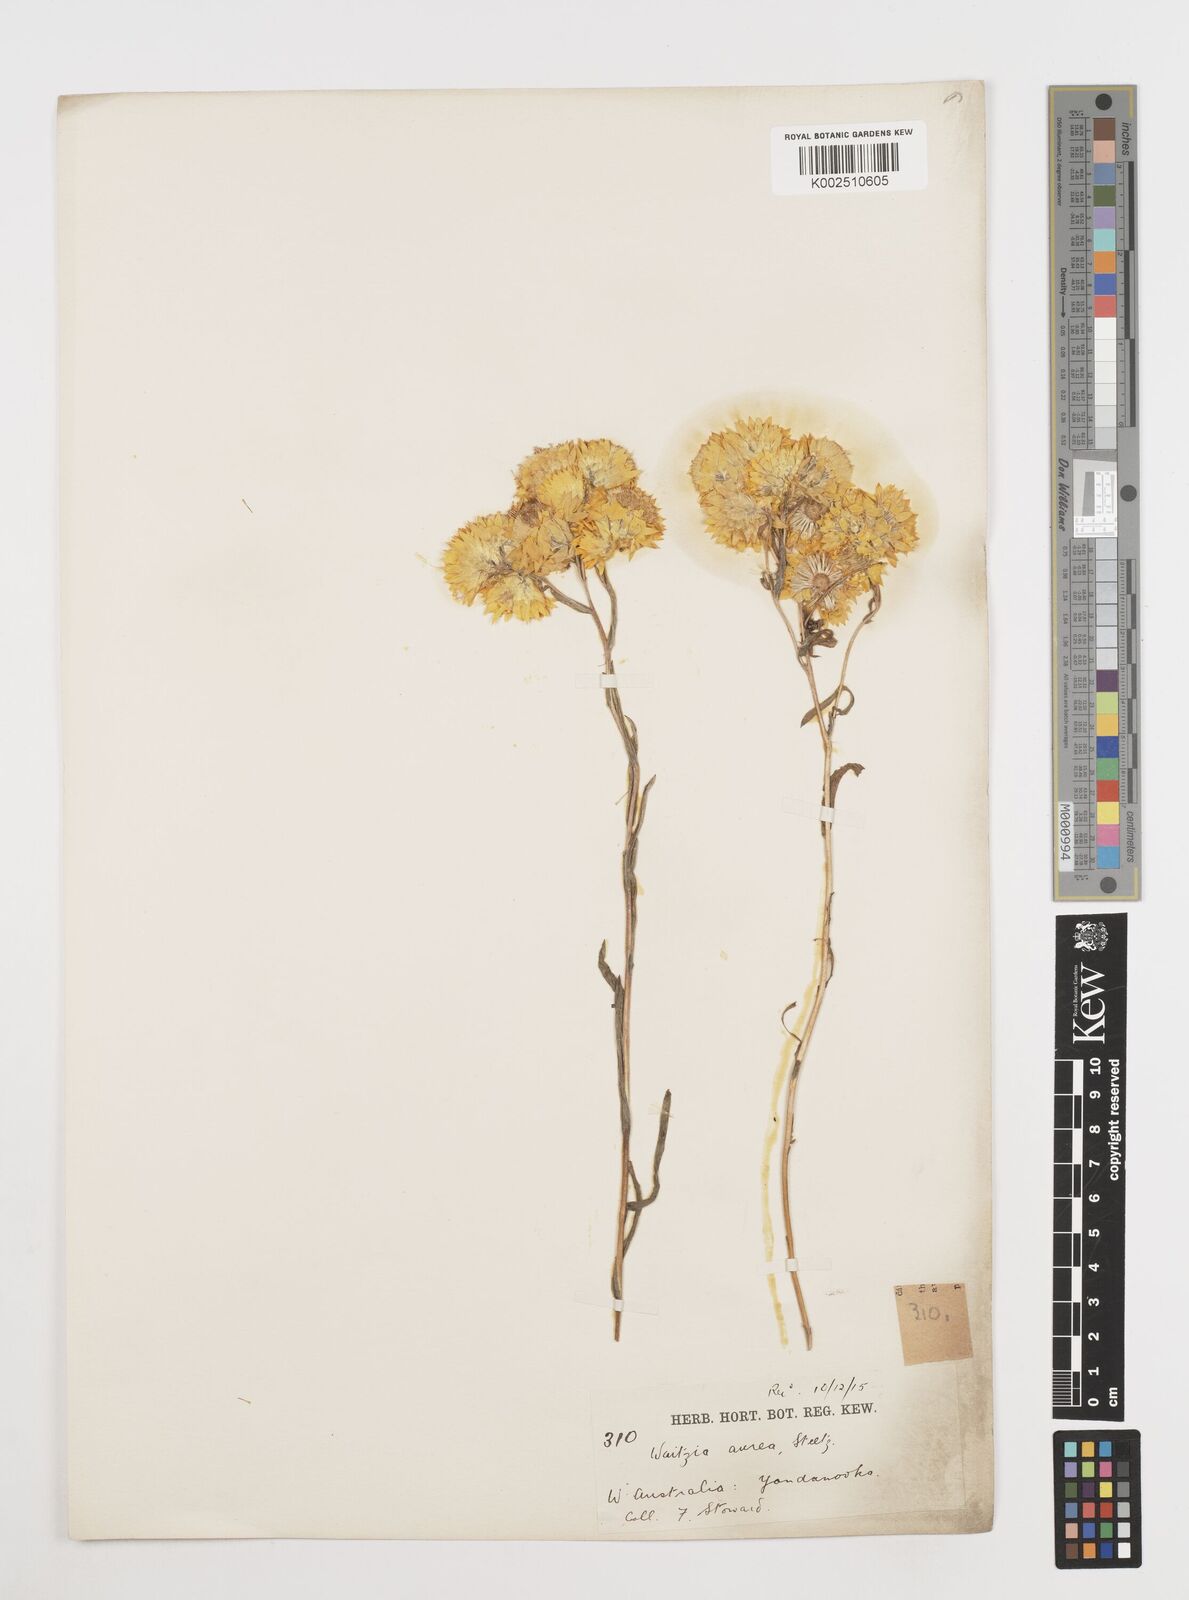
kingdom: Plantae
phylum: Tracheophyta
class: Magnoliopsida
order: Asterales
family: Asteraceae
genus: Waitzia
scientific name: Waitzia nitida
